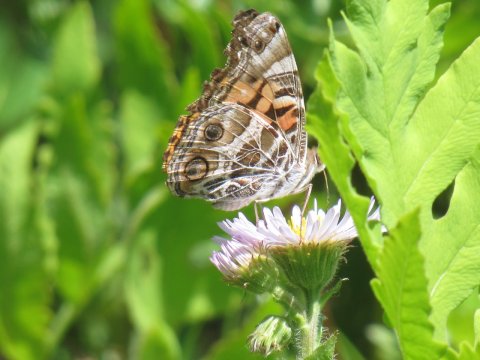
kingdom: Animalia
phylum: Arthropoda
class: Insecta
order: Lepidoptera
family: Nymphalidae
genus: Vanessa
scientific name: Vanessa virginiensis
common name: American Lady
